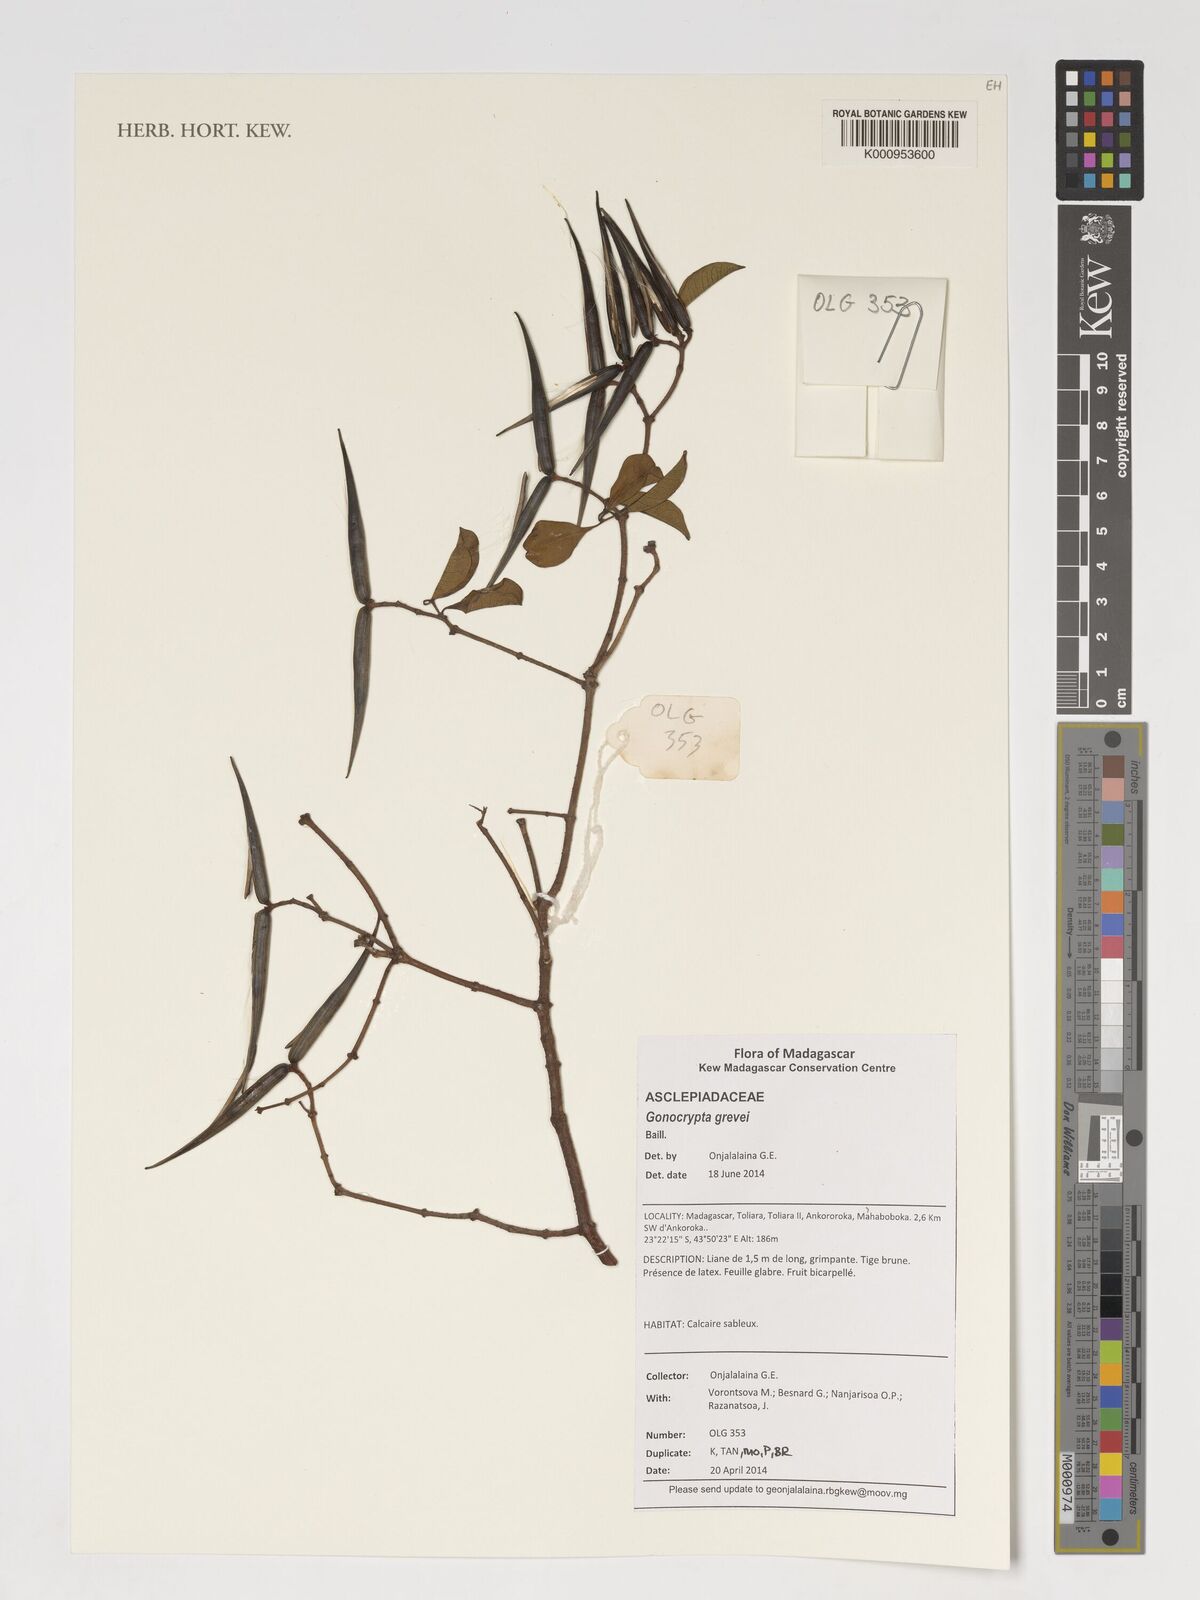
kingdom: Plantae
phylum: Tracheophyta
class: Magnoliopsida
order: Gentianales
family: Apocynaceae
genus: Pentopetia
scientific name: Pentopetia grevei
